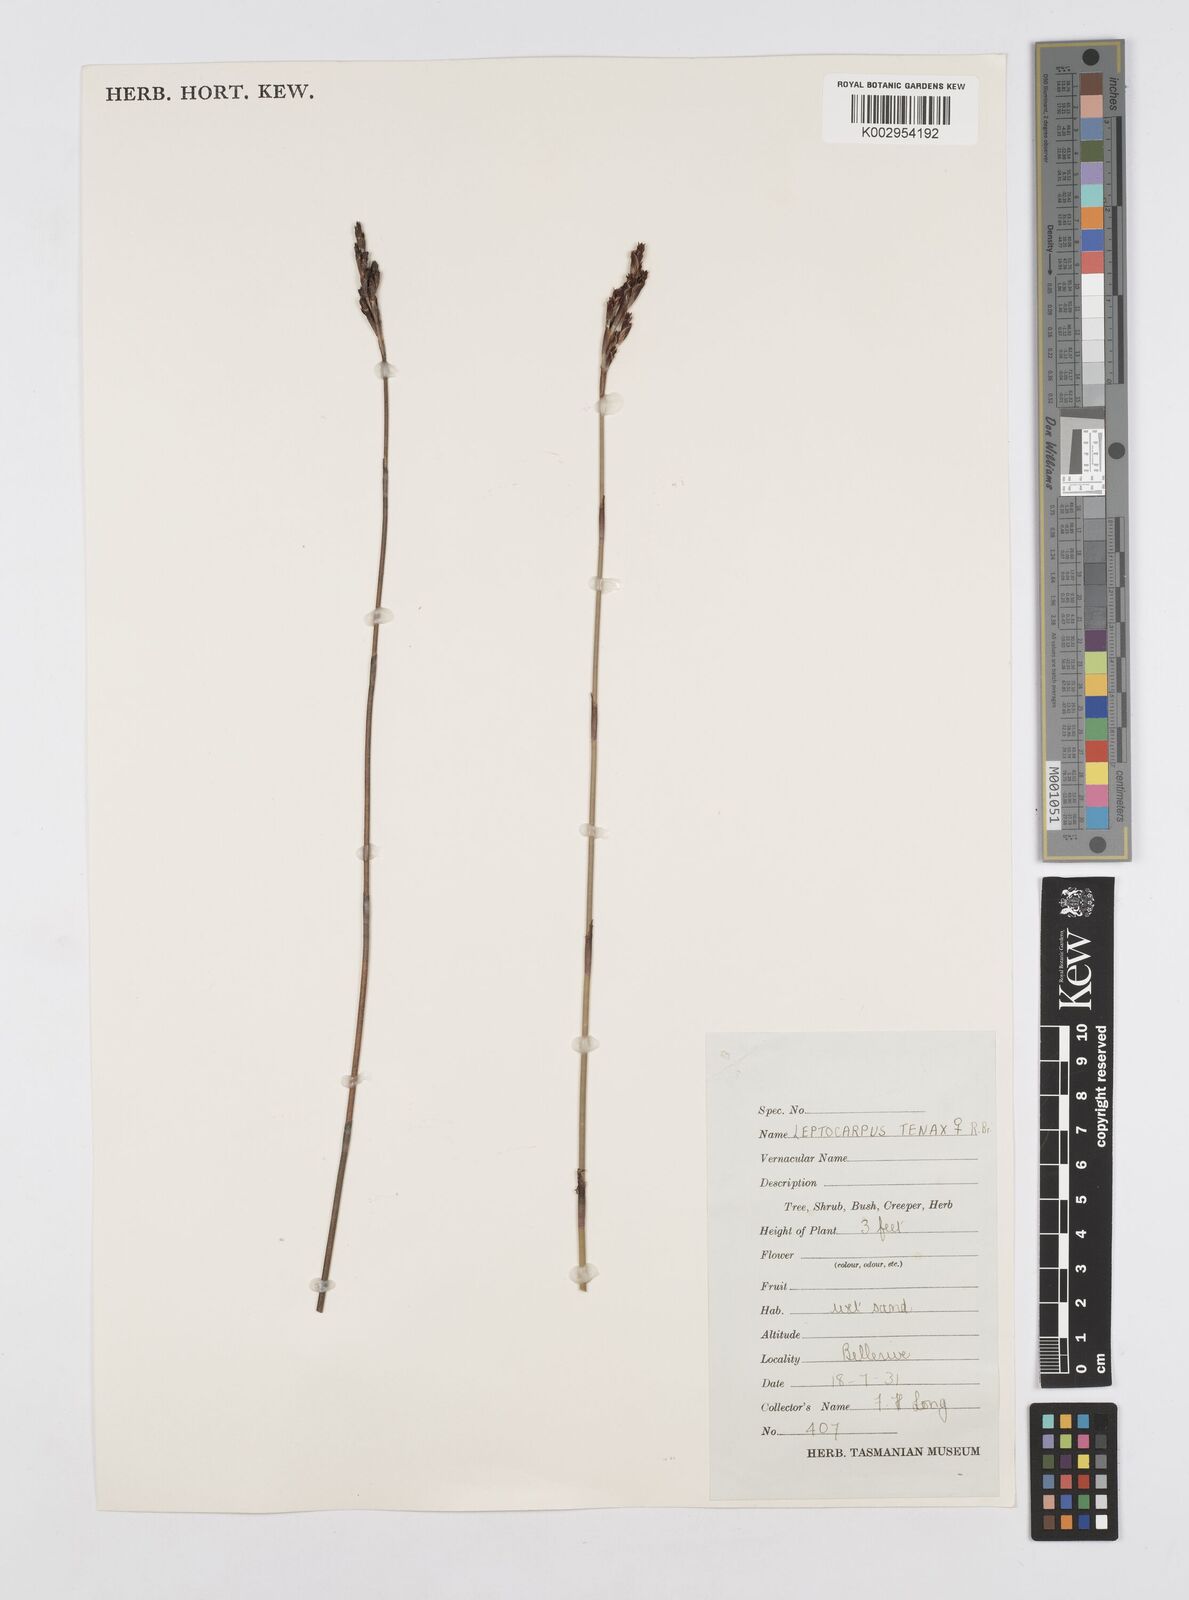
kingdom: Plantae
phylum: Tracheophyta
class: Liliopsida
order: Poales
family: Restionaceae
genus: Leptocarpus
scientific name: Leptocarpus tenax
